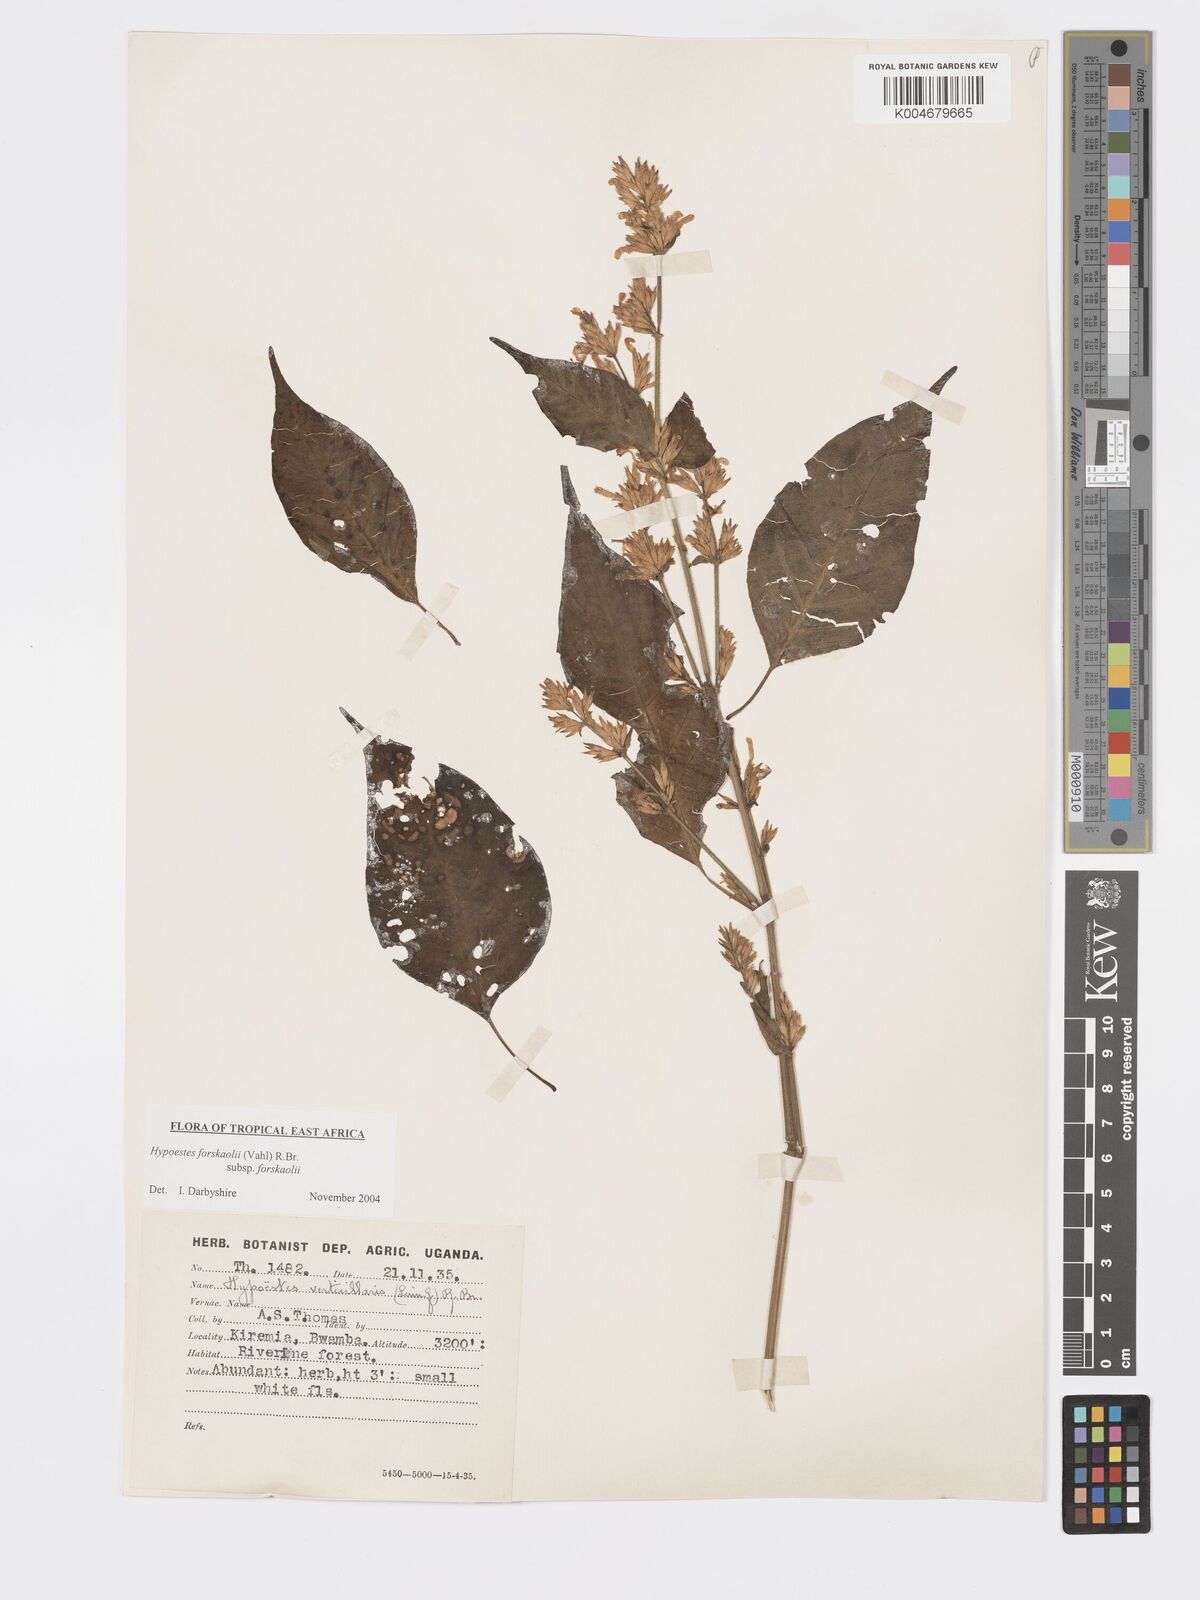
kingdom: Plantae
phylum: Tracheophyta
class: Magnoliopsida
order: Lamiales
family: Acanthaceae
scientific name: Acanthaceae
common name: Acanthaceae
